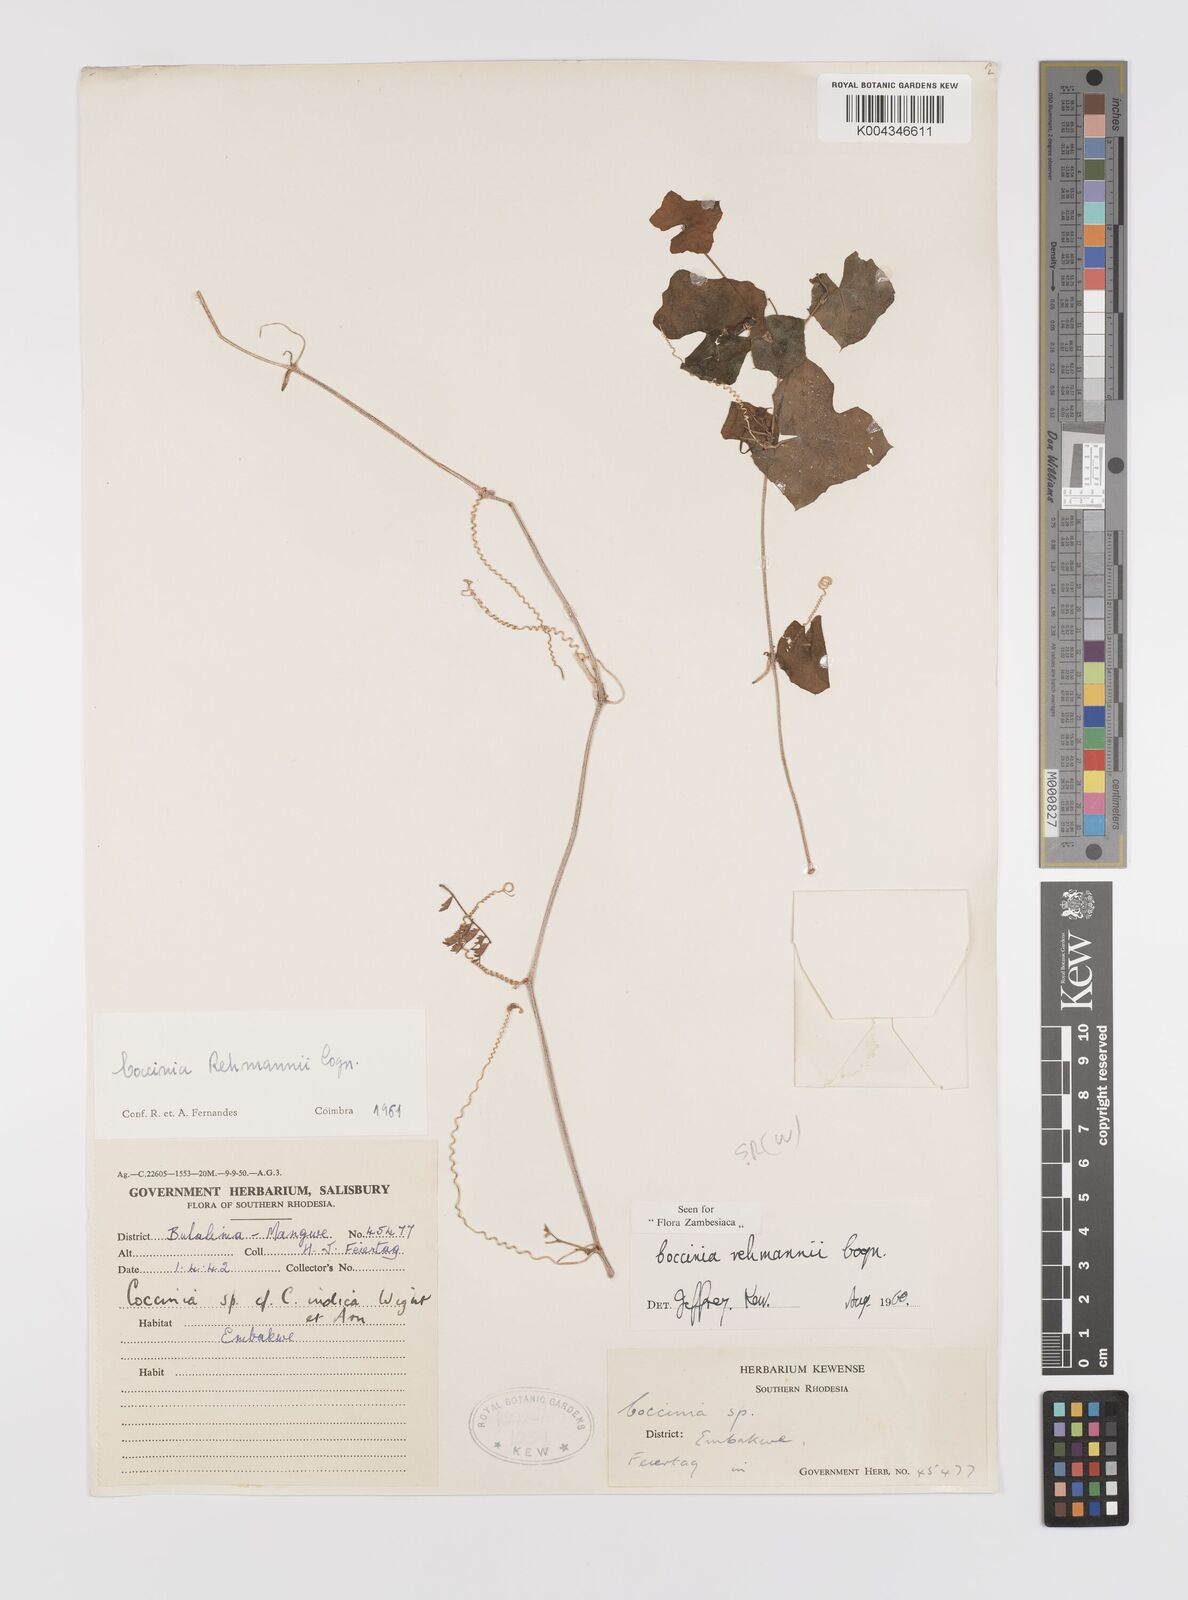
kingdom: Plantae
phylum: Tracheophyta
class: Magnoliopsida
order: Cucurbitales
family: Cucurbitaceae
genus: Coccinia
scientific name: Coccinia rehmannii
